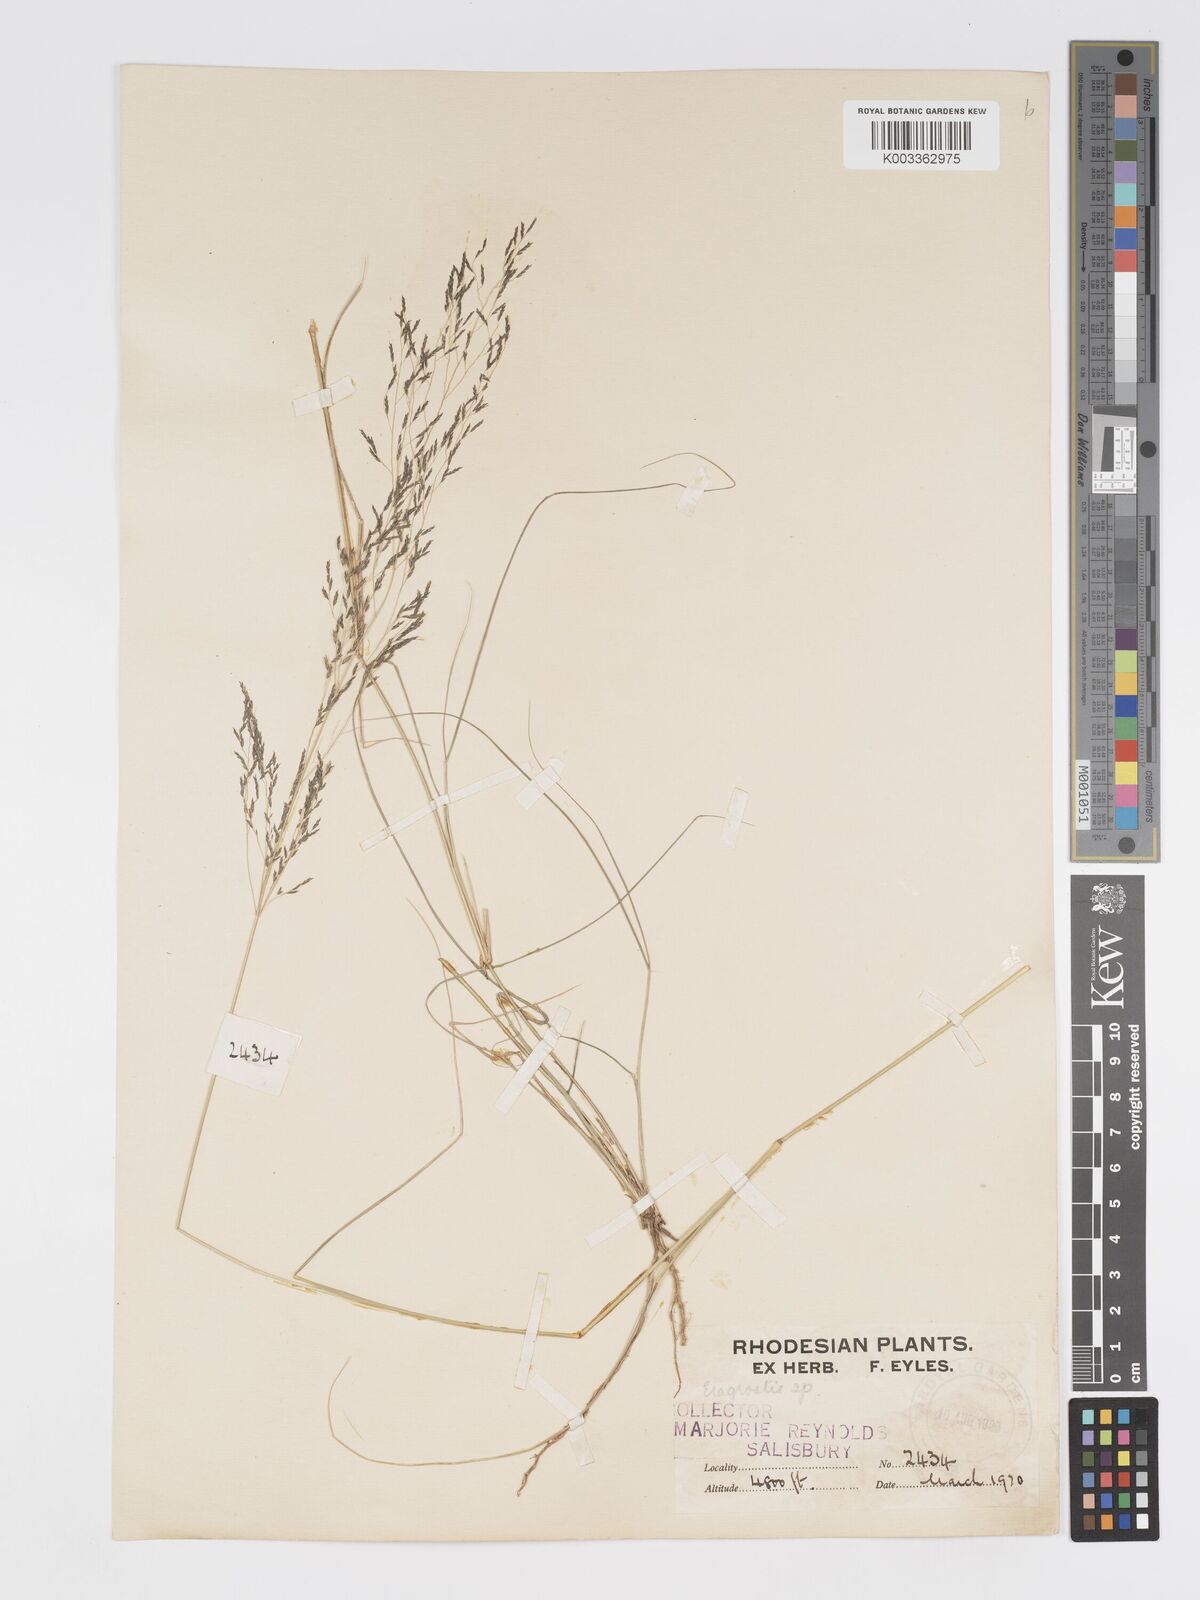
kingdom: Plantae
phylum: Tracheophyta
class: Liliopsida
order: Poales
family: Poaceae
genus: Eragrostis
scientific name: Eragrostis cylindriflora
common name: Cylinderflower lovegrass
